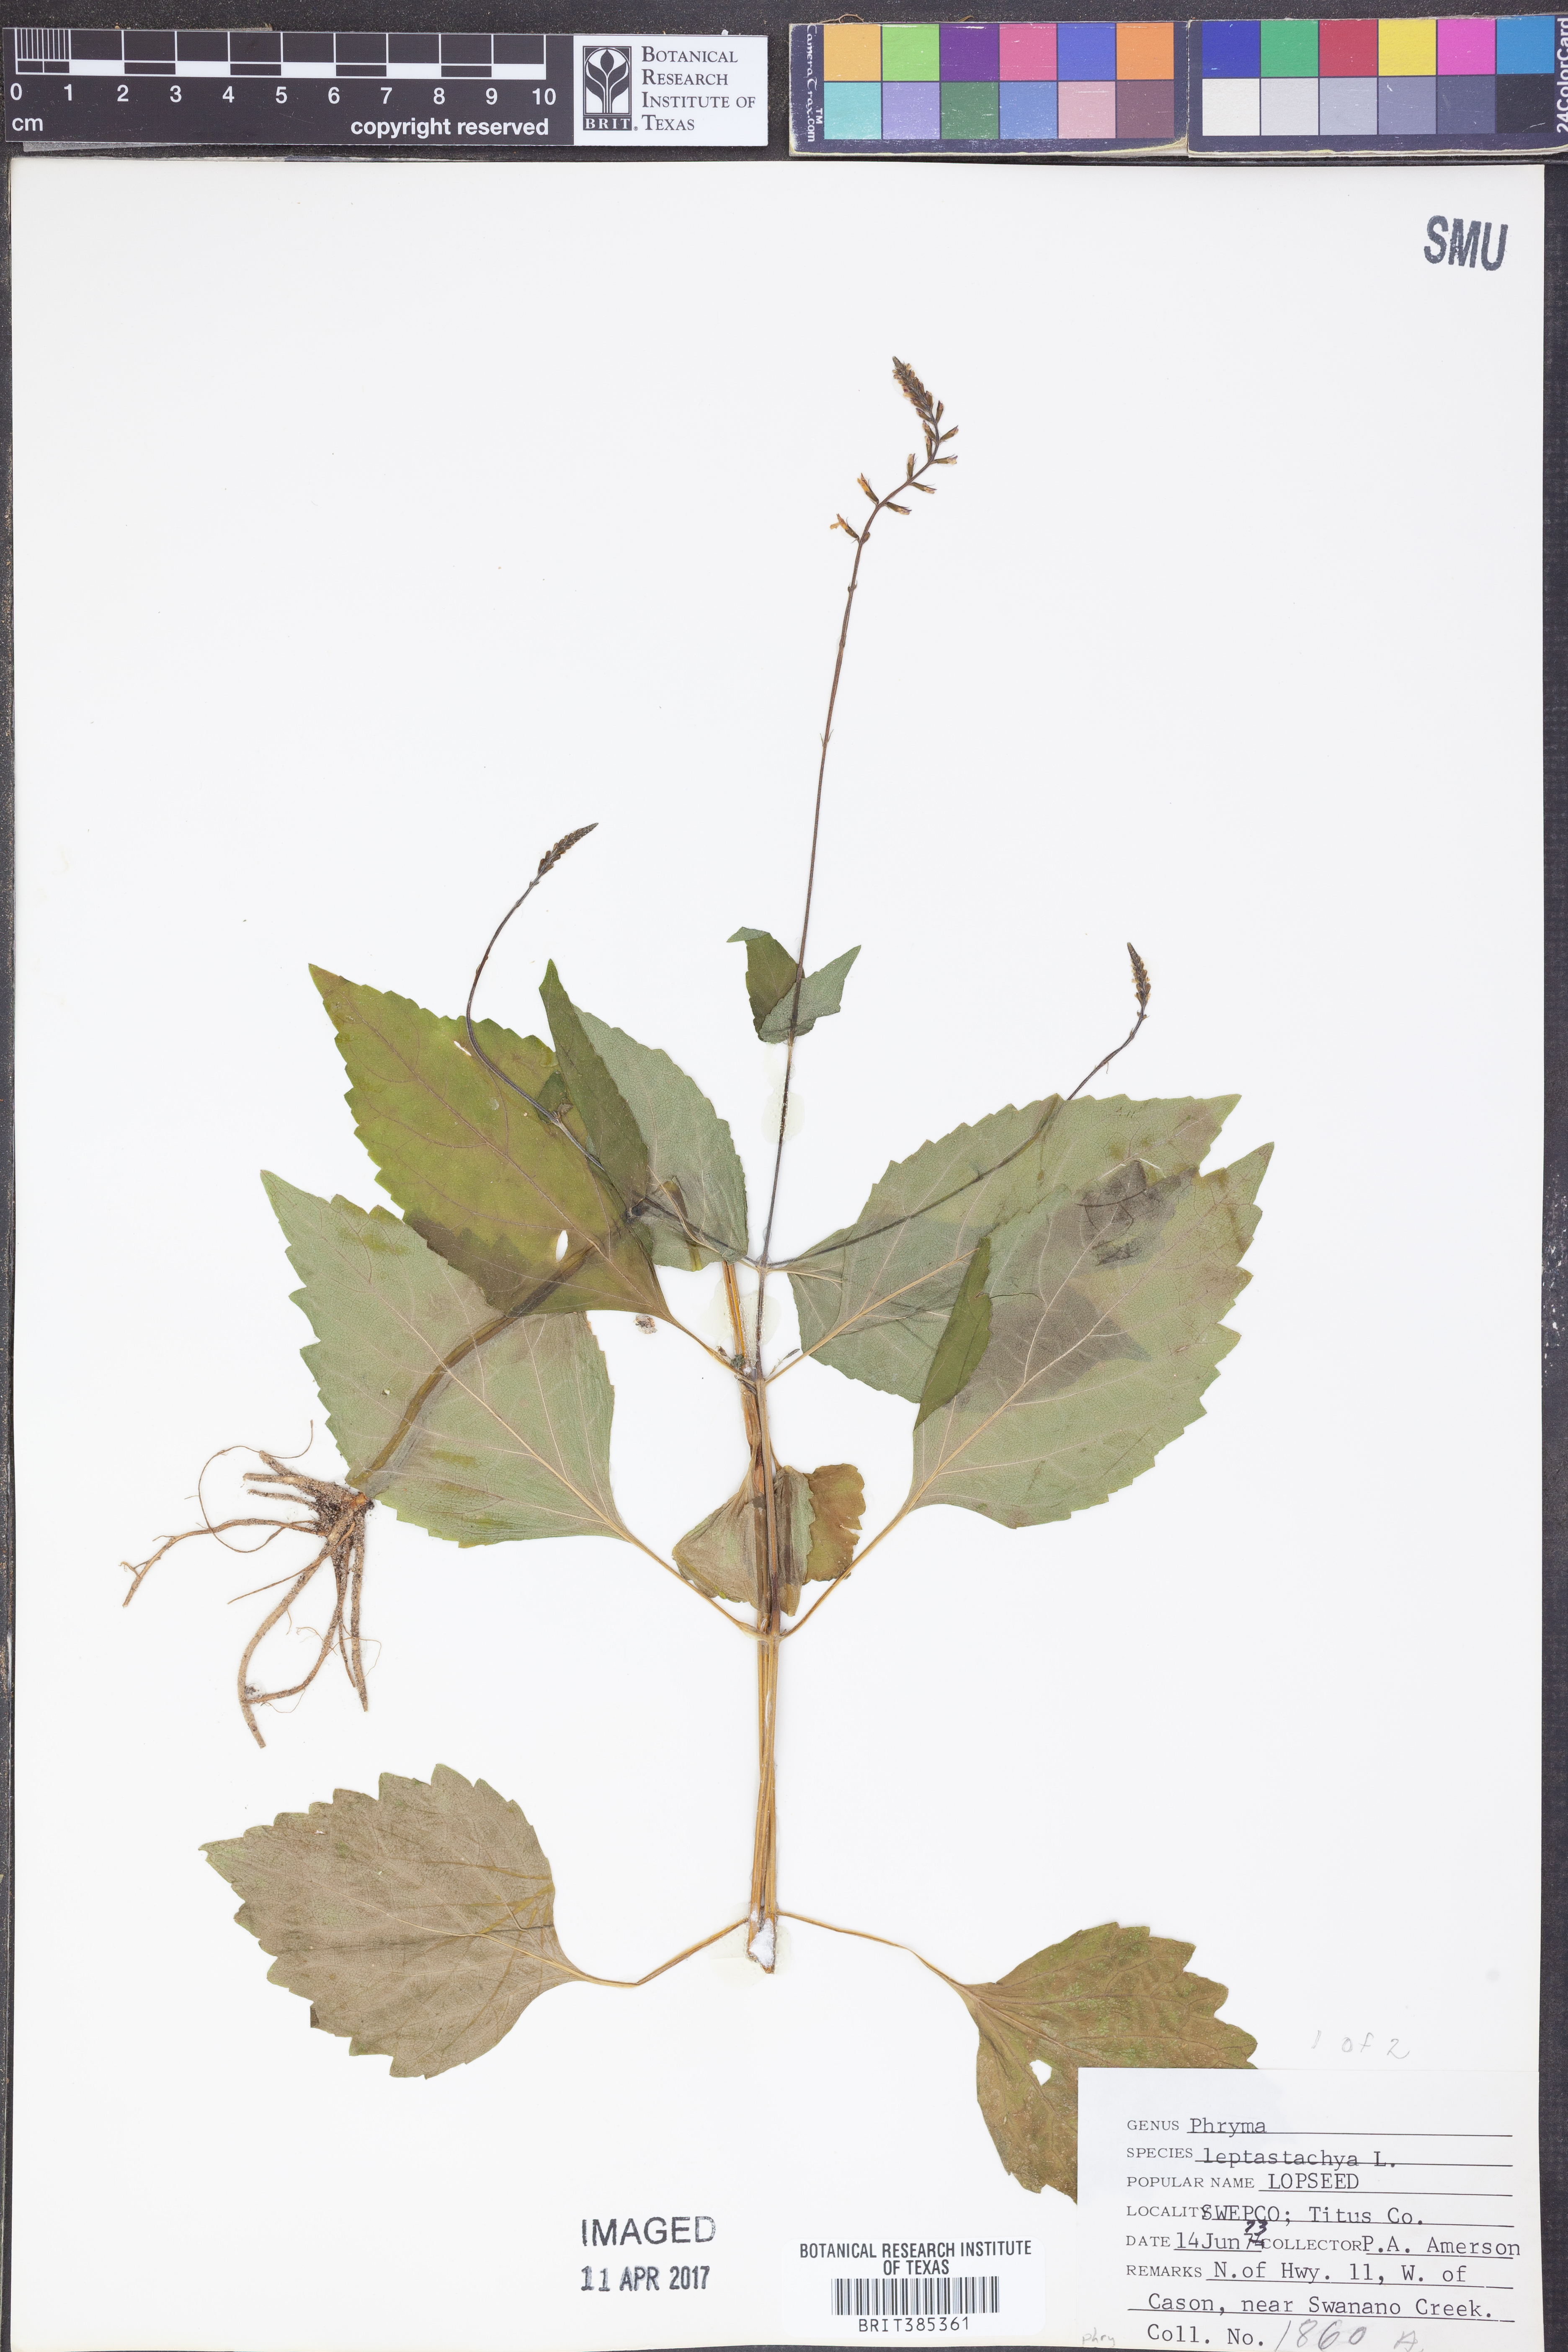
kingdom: Plantae
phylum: Tracheophyta
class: Magnoliopsida
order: Lamiales
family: Phrymaceae
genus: Phryma
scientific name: Phryma leptostachya
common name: American lopseed
